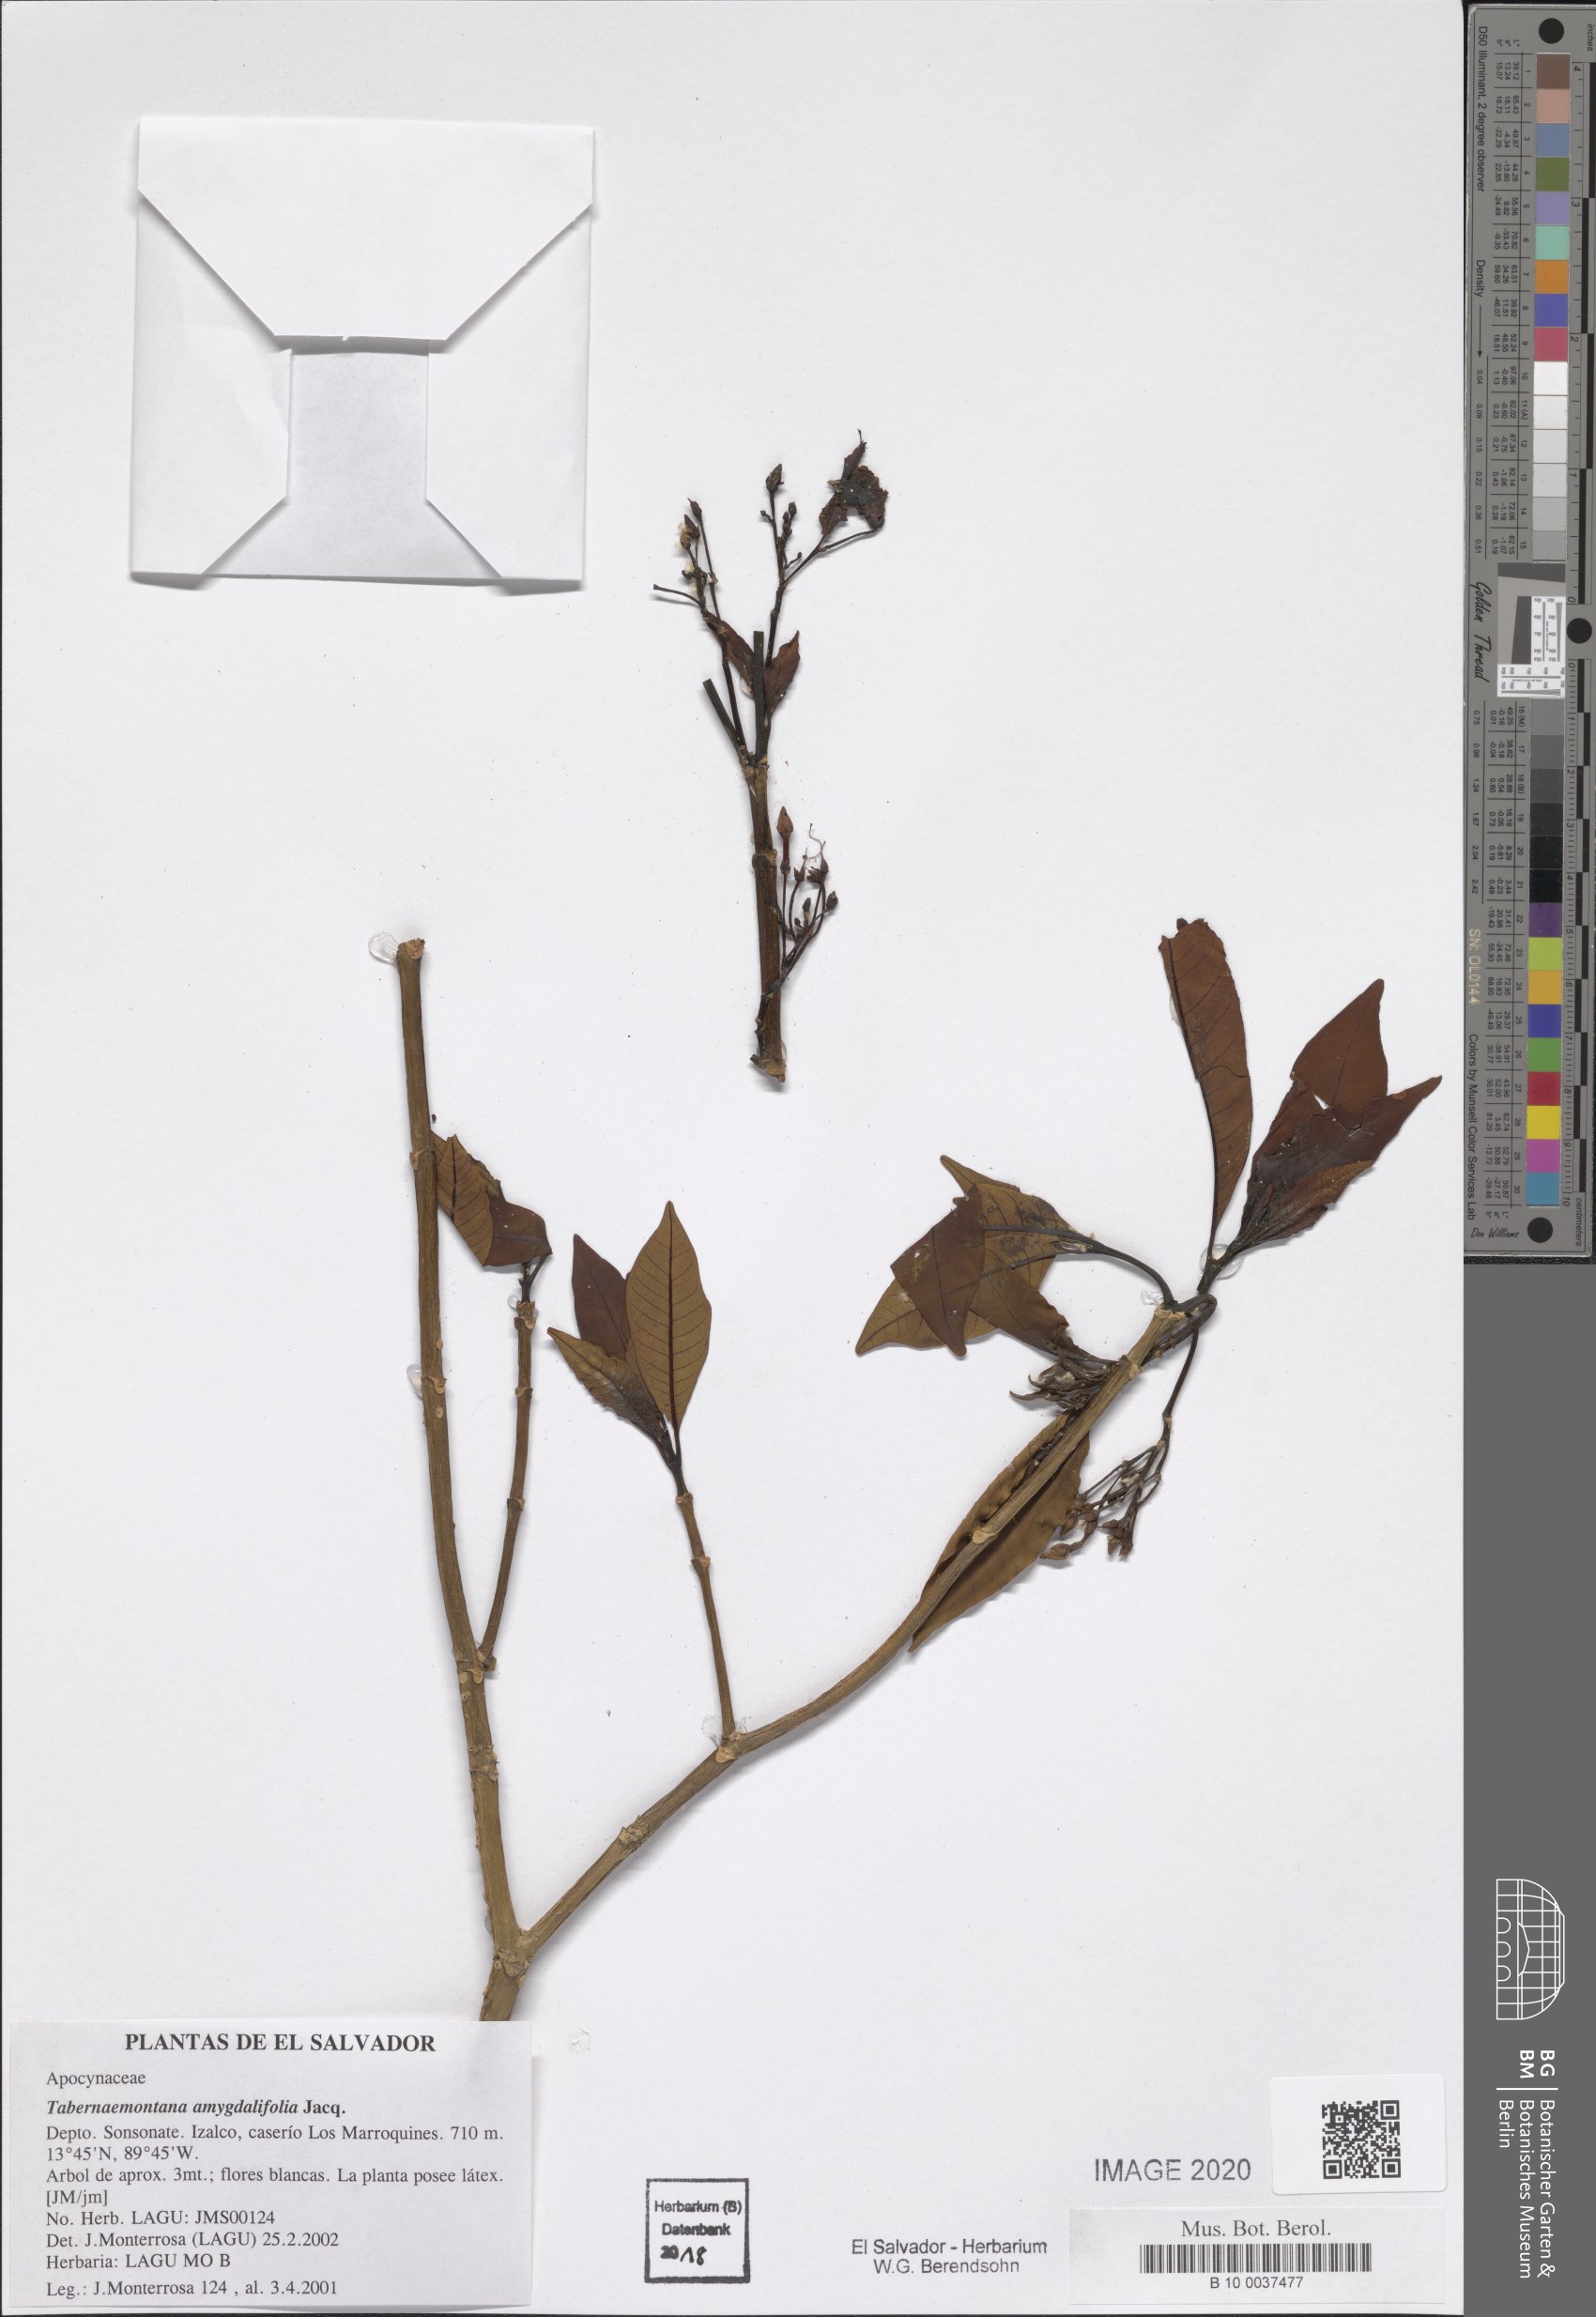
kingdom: Plantae
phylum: Tracheophyta
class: Magnoliopsida
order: Gentianales
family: Apocynaceae
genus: Tabernaemontana
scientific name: Tabernaemontana amygdalifolia
